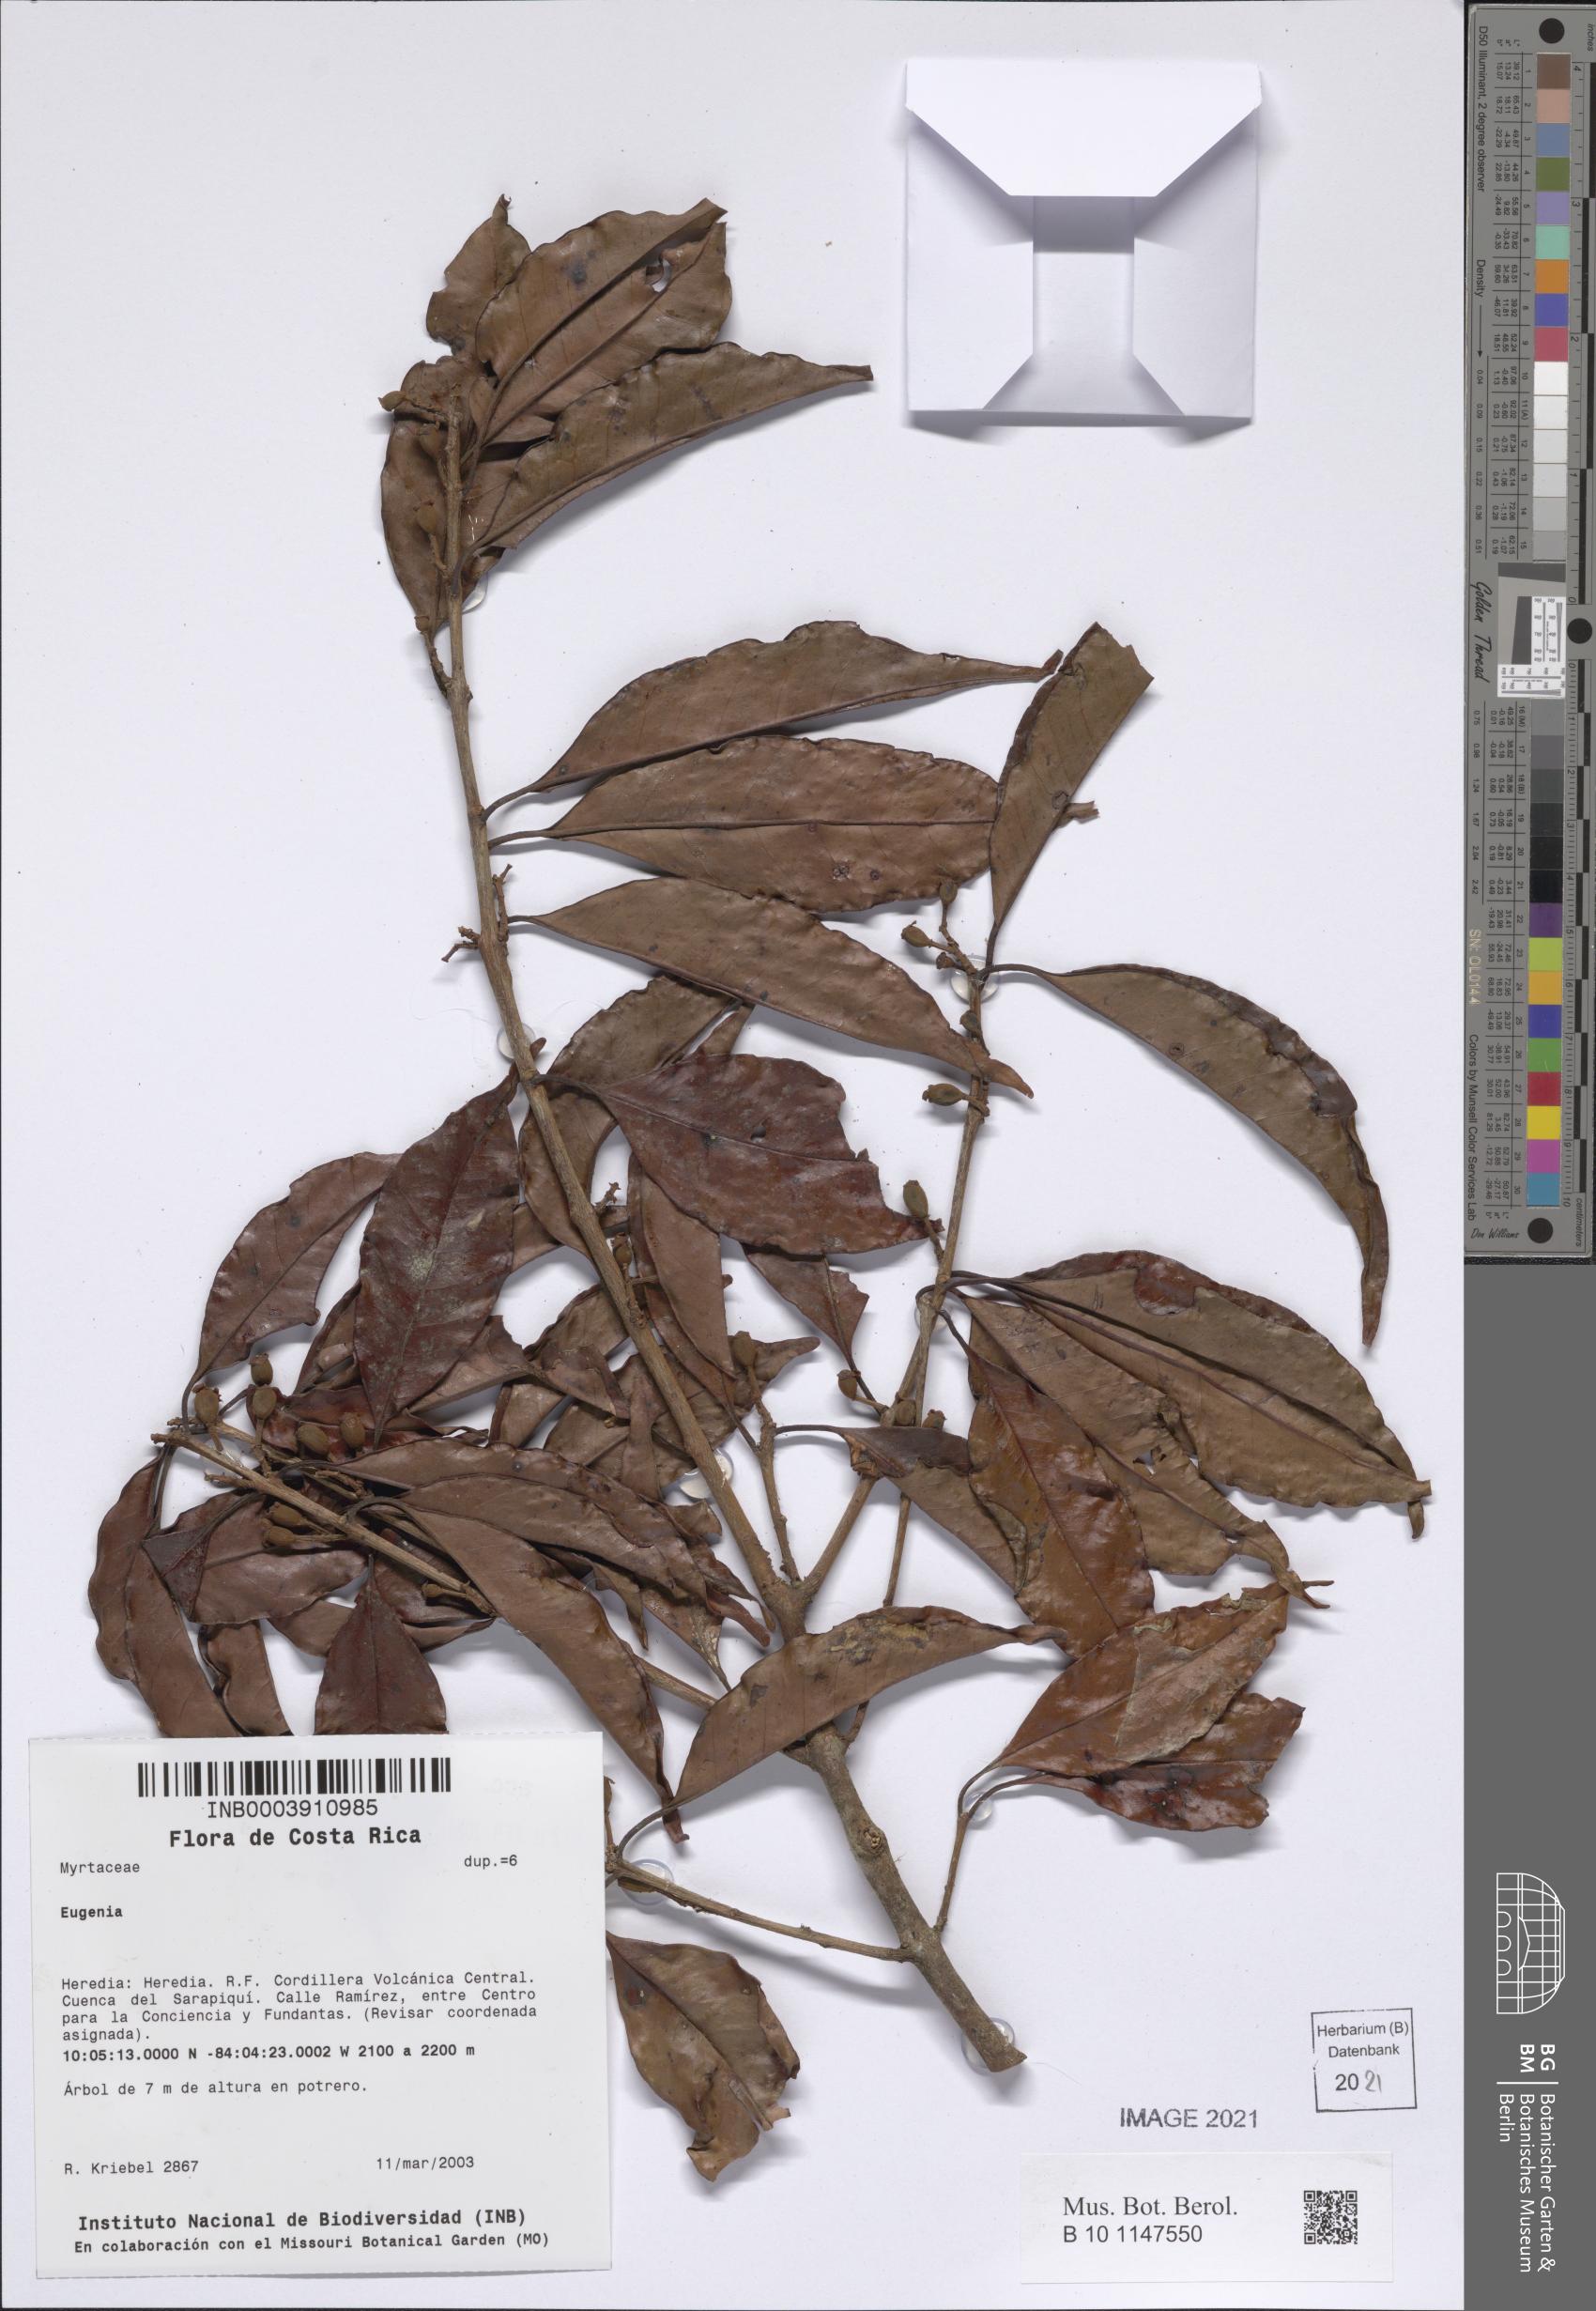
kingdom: Plantae
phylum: Tracheophyta
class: Magnoliopsida
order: Myrtales
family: Myrtaceae
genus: Eugenia
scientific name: Eugenia
